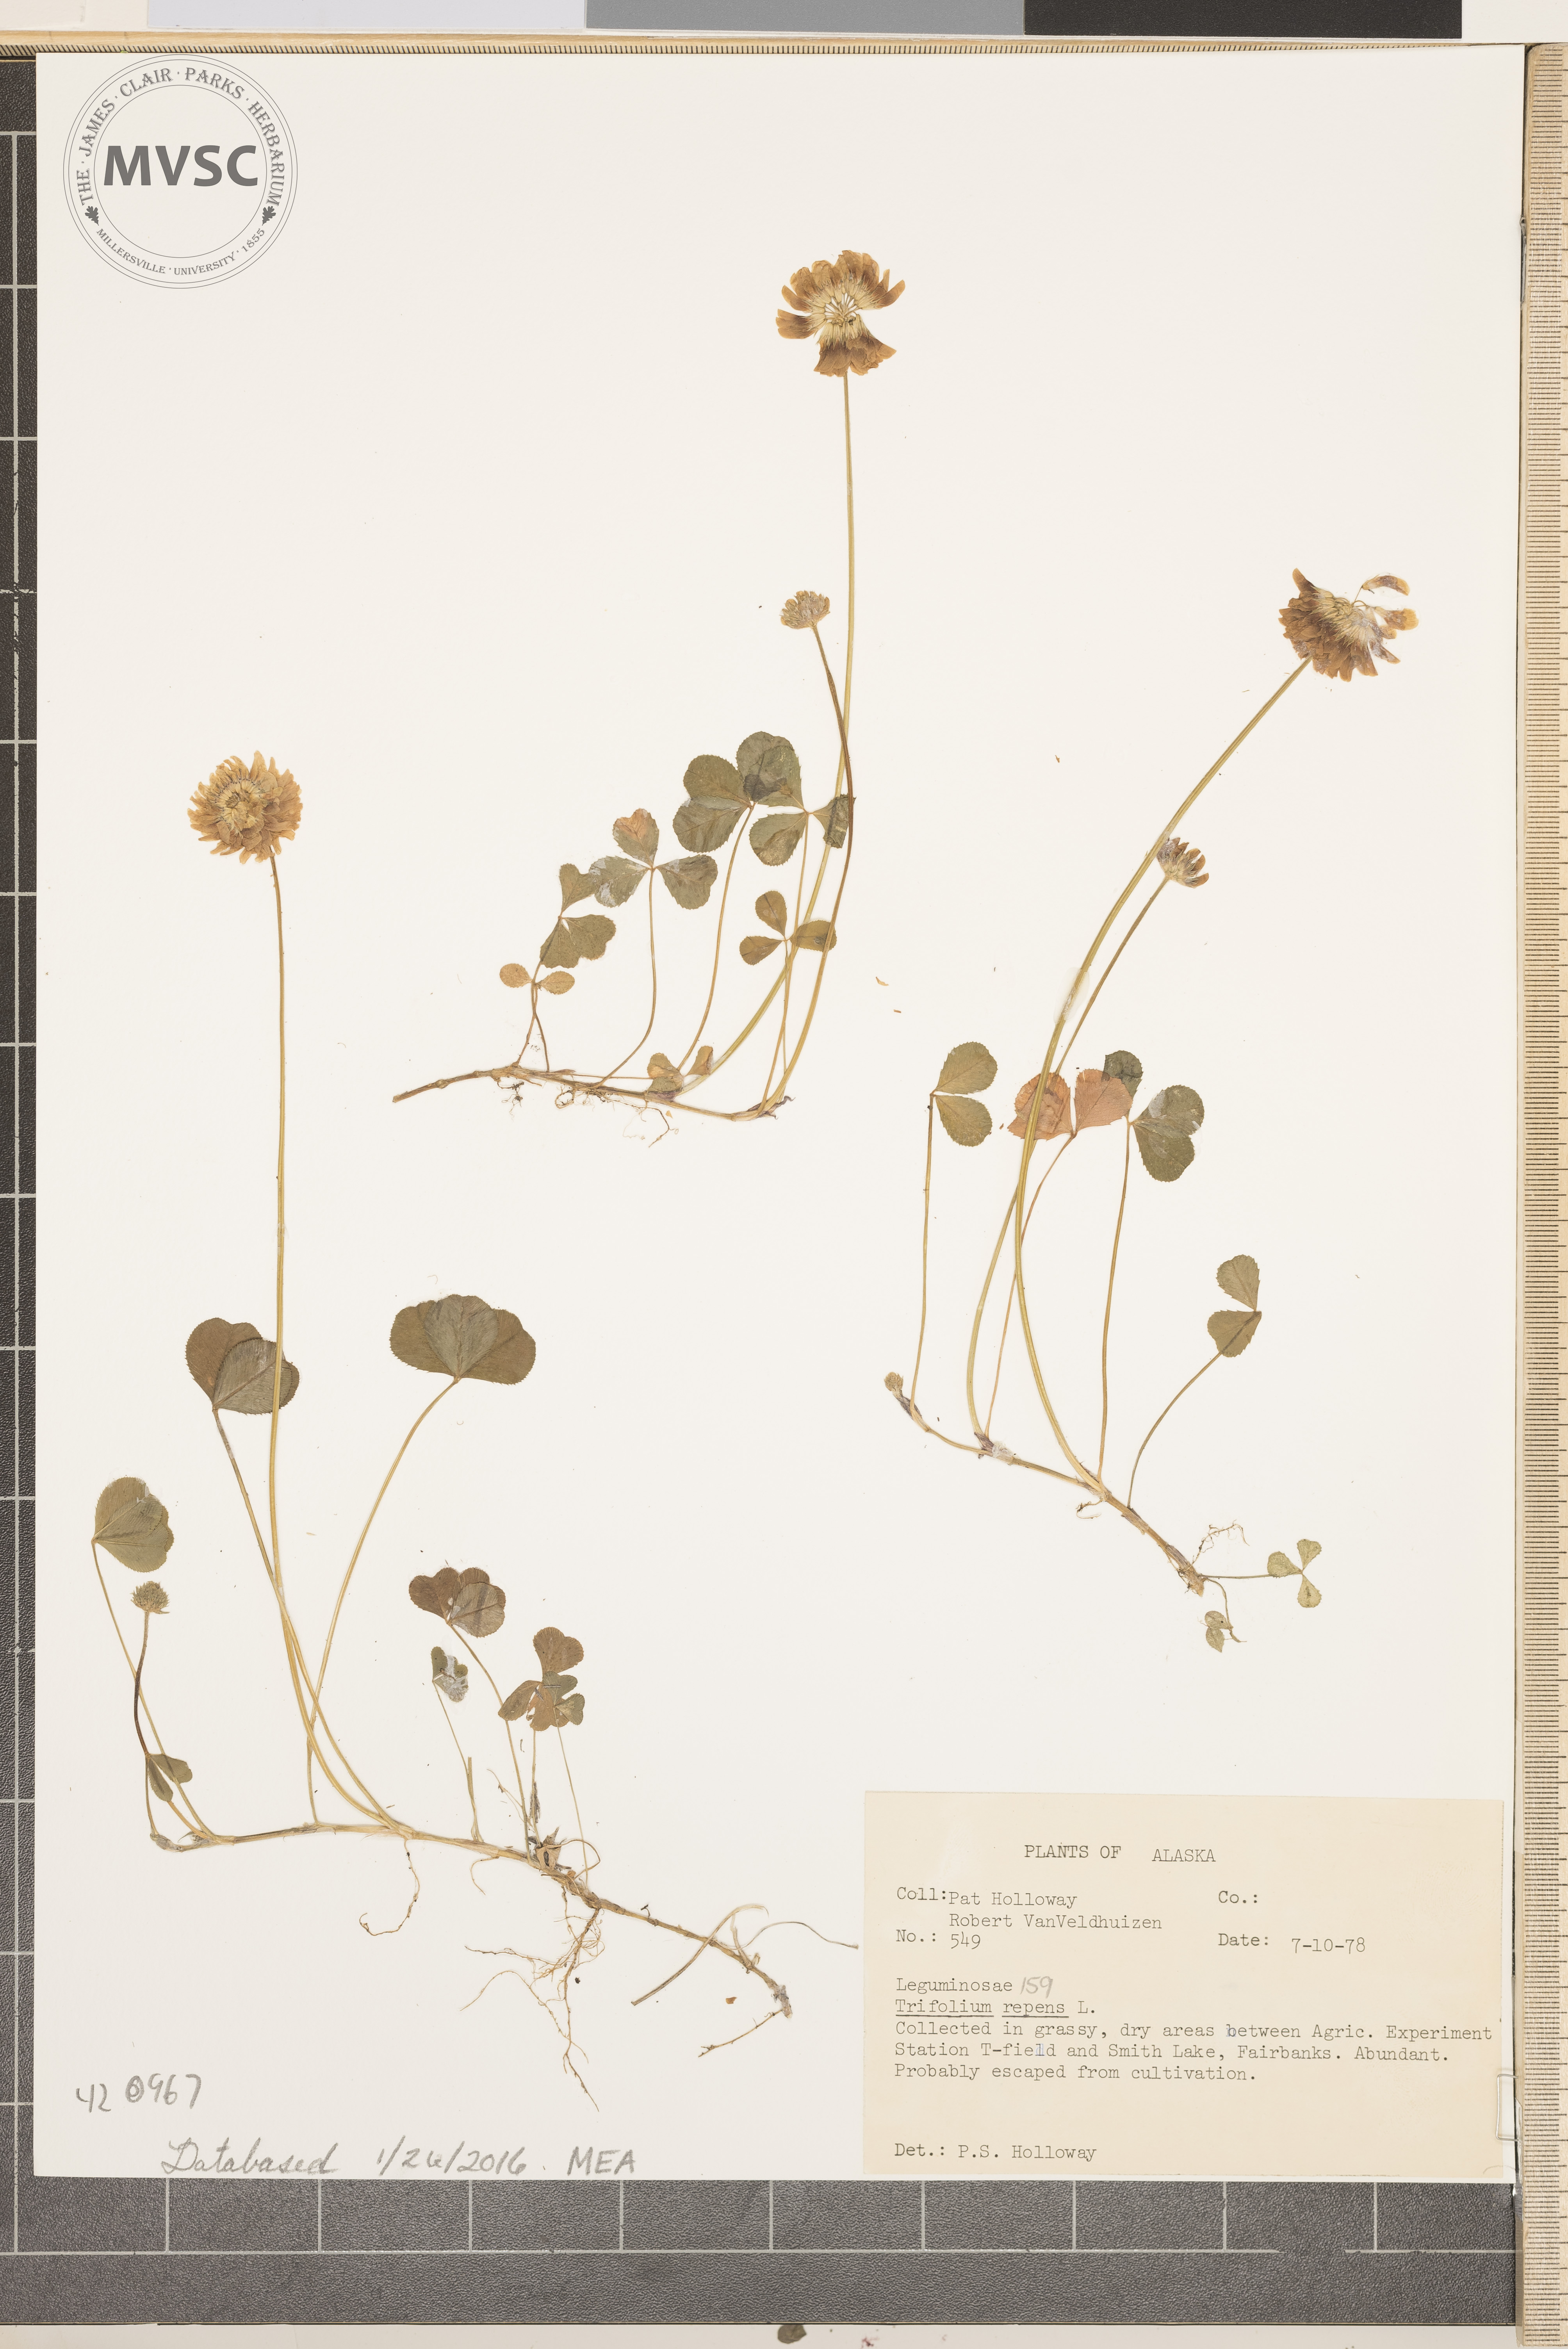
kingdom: Plantae
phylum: Tracheophyta
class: Magnoliopsida
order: Fabales
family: Fabaceae
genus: Trifolium
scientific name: Trifolium repens
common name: White clover
